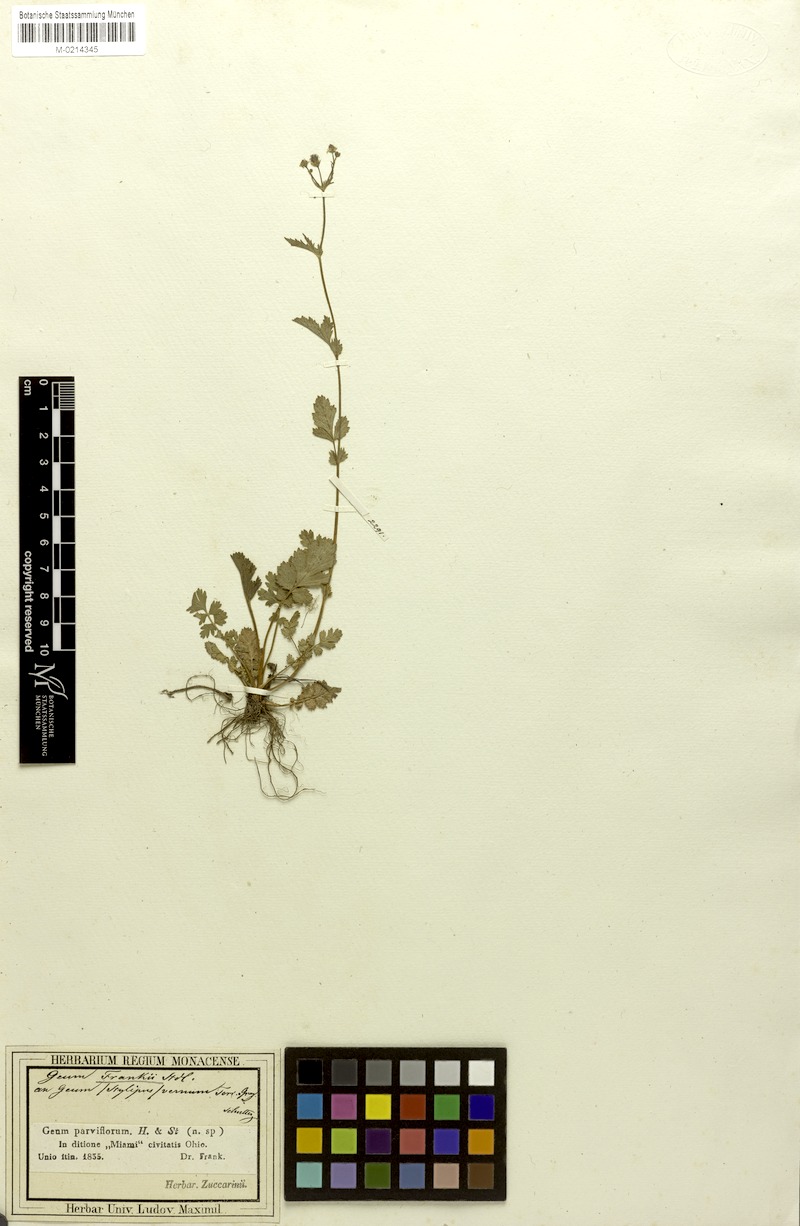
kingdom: Plantae
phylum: Tracheophyta
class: Magnoliopsida
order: Rosales
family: Rosaceae
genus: Geum
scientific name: Geum parviflorum
